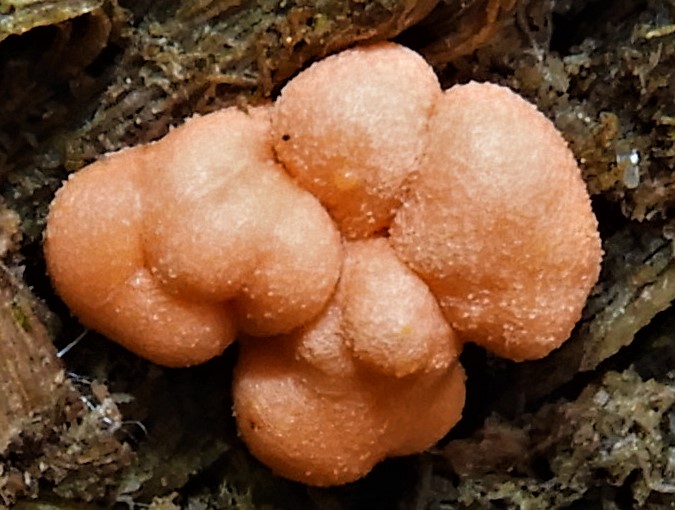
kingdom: Protozoa
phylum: Mycetozoa
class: Myxomycetes
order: Cribrariales
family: Tubiferaceae
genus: Lycogala
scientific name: Lycogala epidendrum
